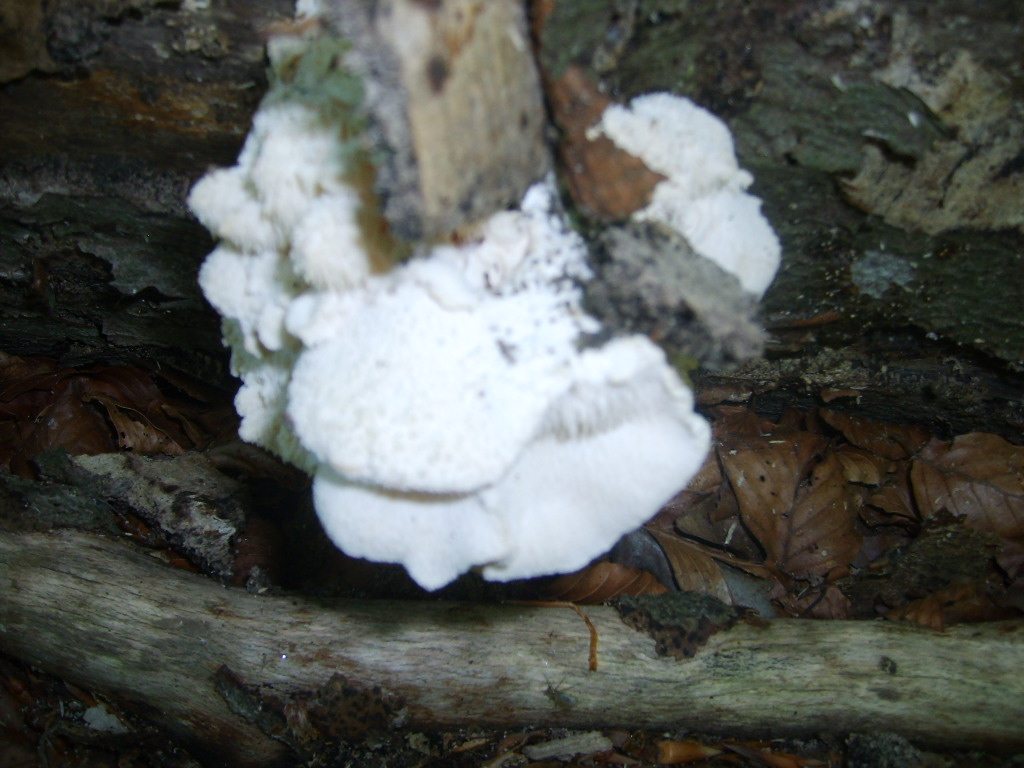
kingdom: Fungi
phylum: Basidiomycota
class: Agaricomycetes
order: Russulales
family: Hericiaceae
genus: Hericium
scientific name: Hericium cirrhatum
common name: børstepigsvamp
